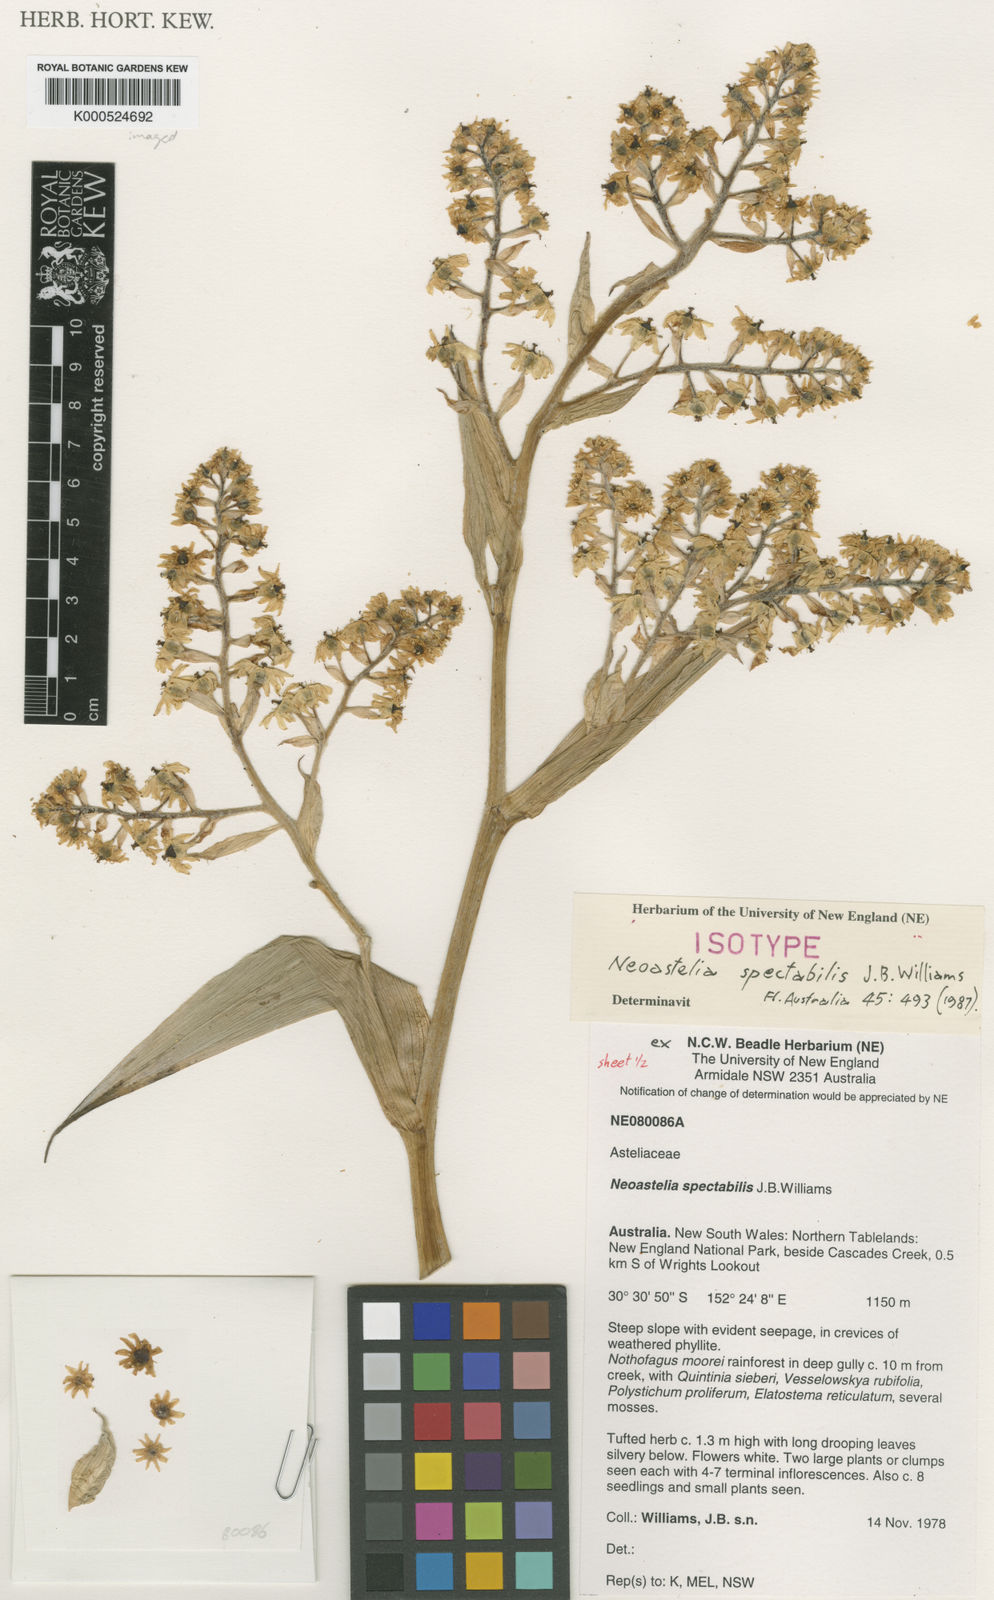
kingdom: Plantae
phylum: Tracheophyta
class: Liliopsida
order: Asparagales
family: Asteliaceae
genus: Neoastelia
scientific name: Neoastelia spectabilis
